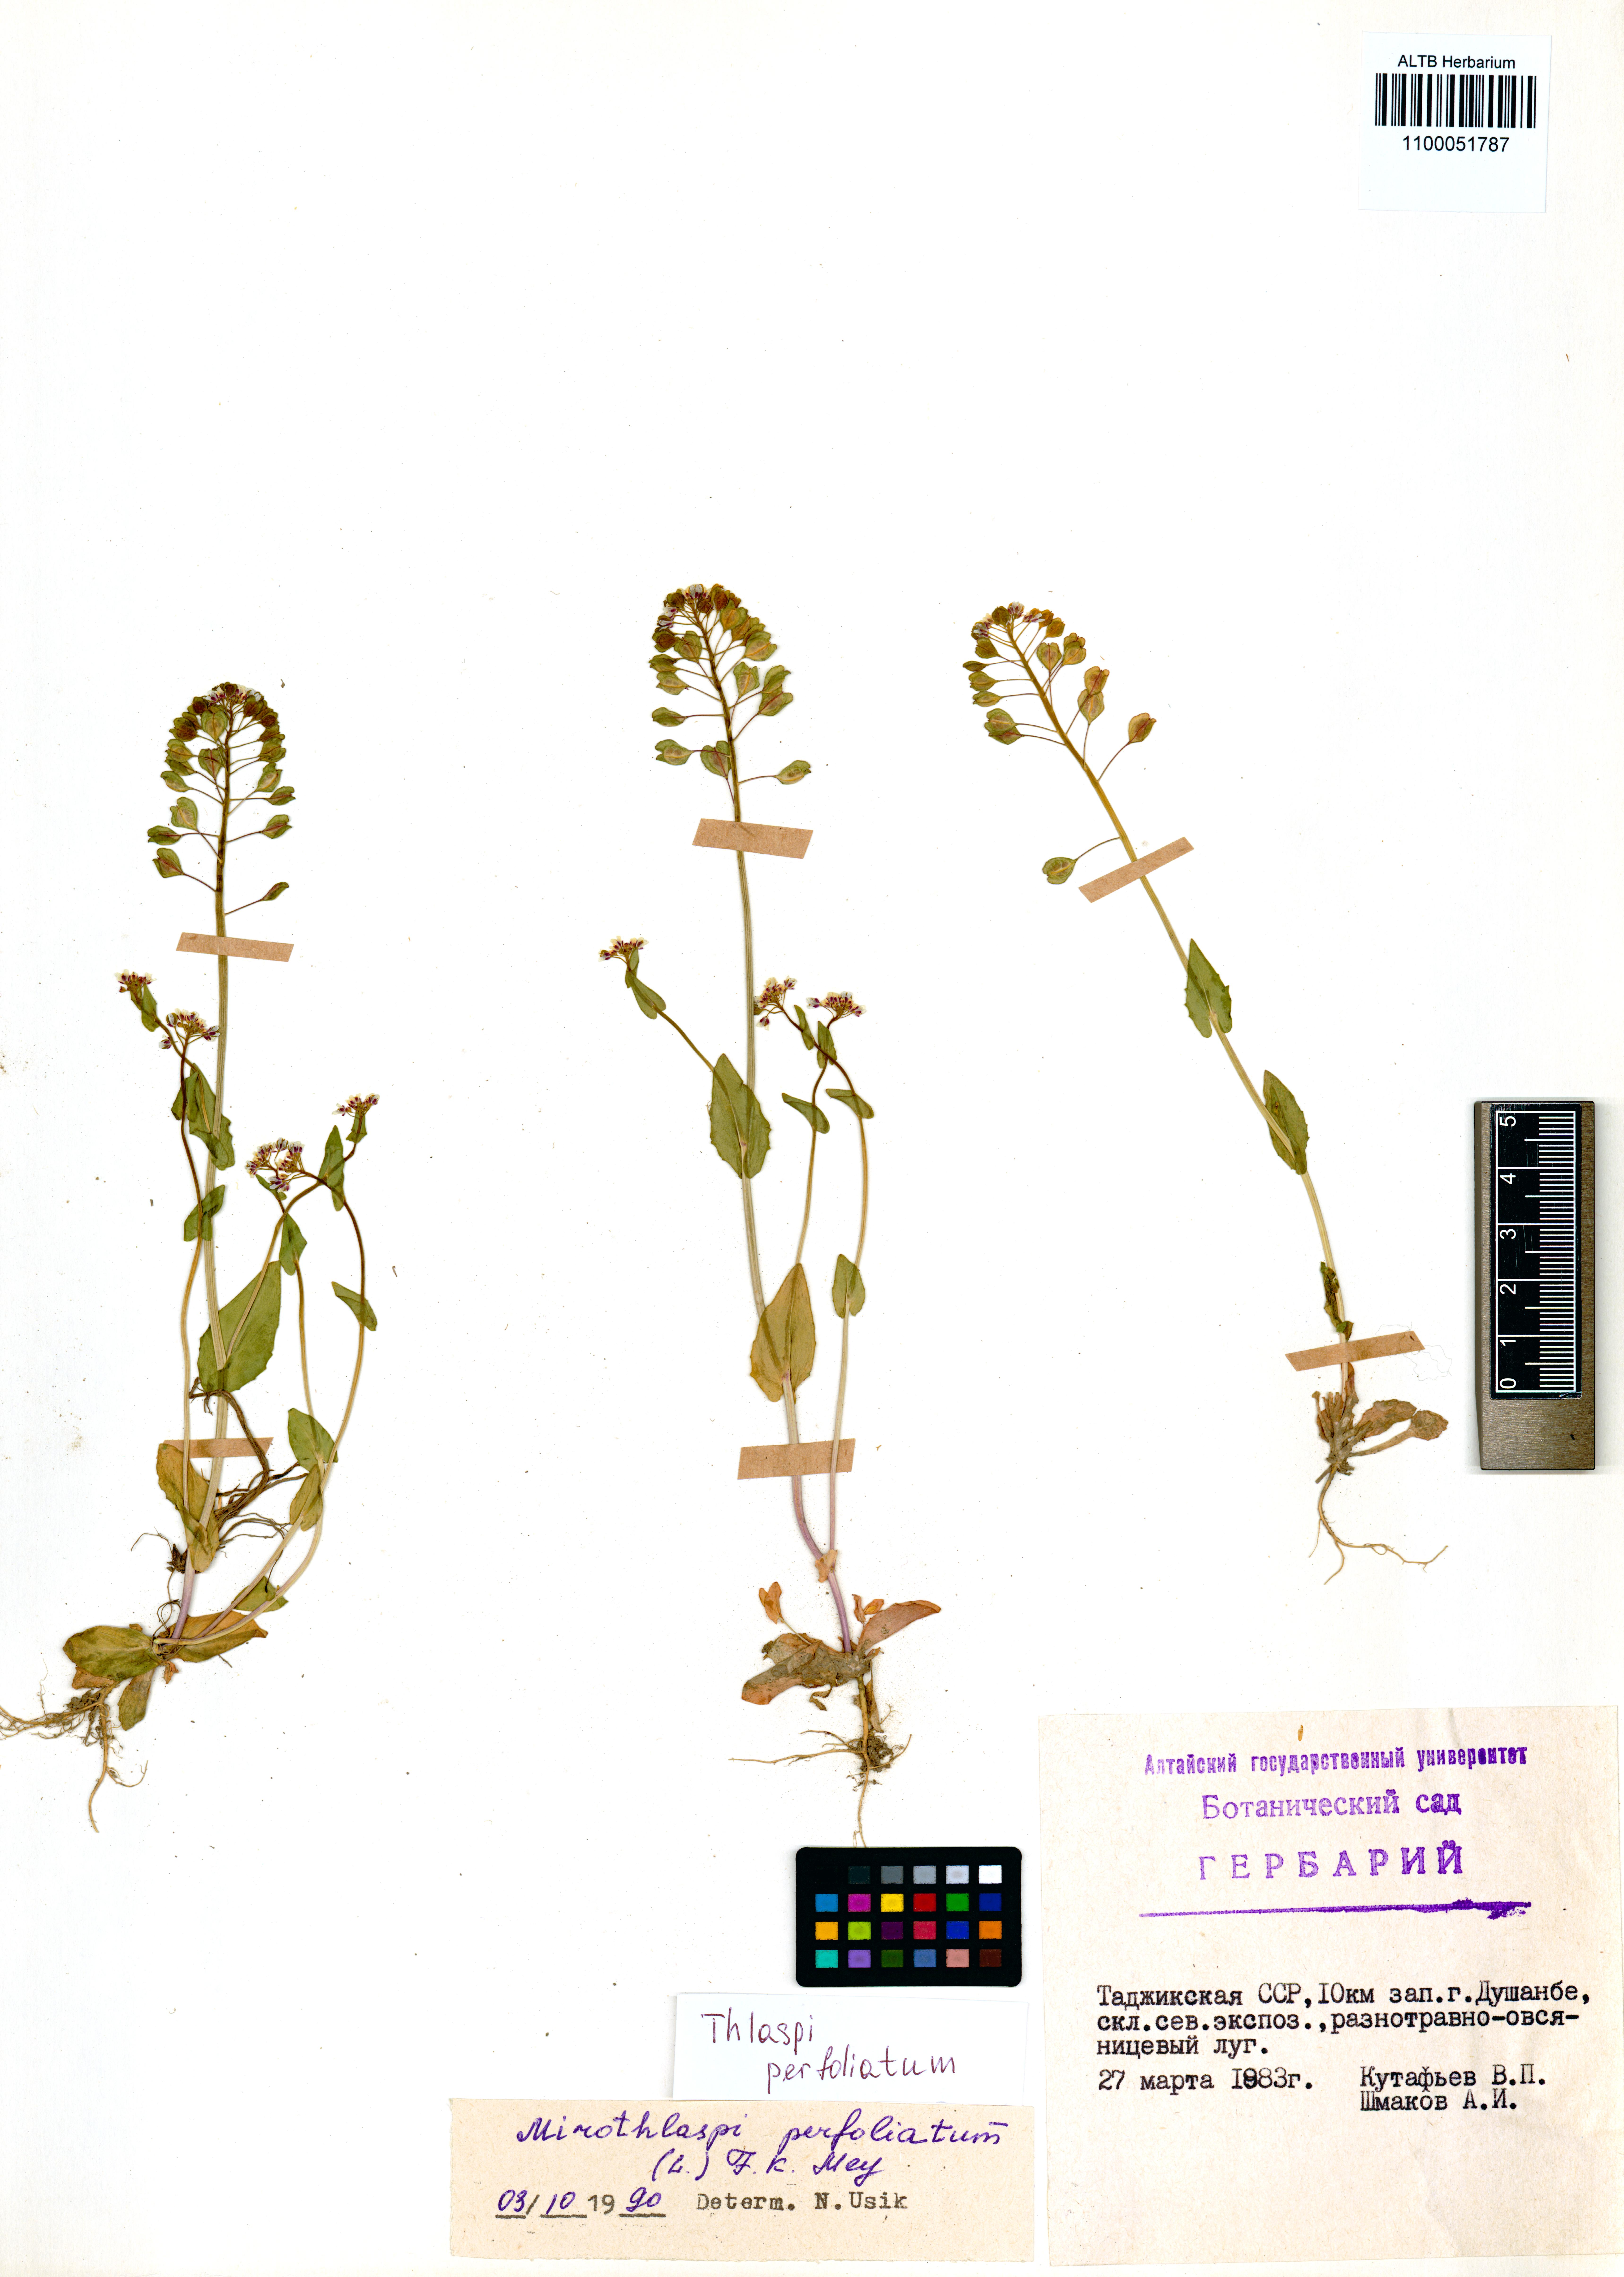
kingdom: Plantae
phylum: Tracheophyta
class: Magnoliopsida
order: Brassicales
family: Brassicaceae
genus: Noccaea
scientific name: Noccaea perfoliata
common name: Perfoliate pennycress
